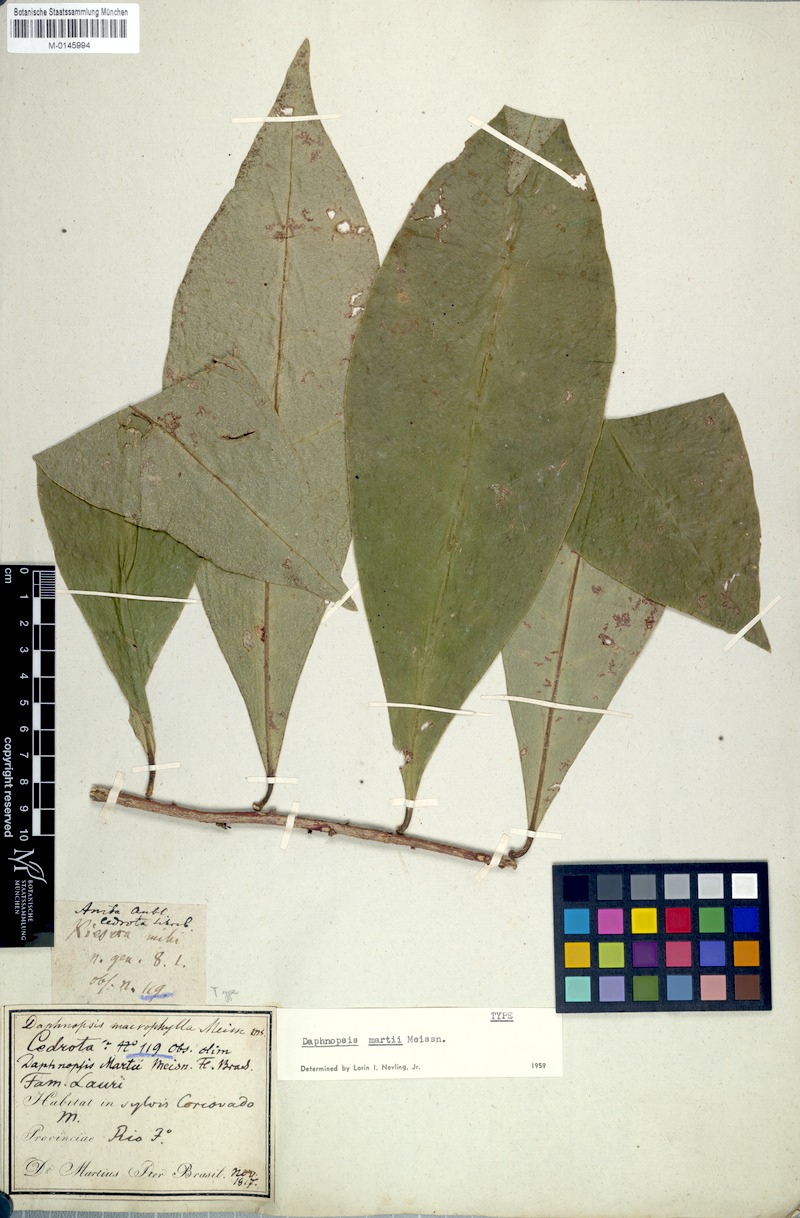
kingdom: Plantae
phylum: Tracheophyta
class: Magnoliopsida
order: Malvales
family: Thymelaeaceae
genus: Daphnopsis
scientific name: Daphnopsis martii
